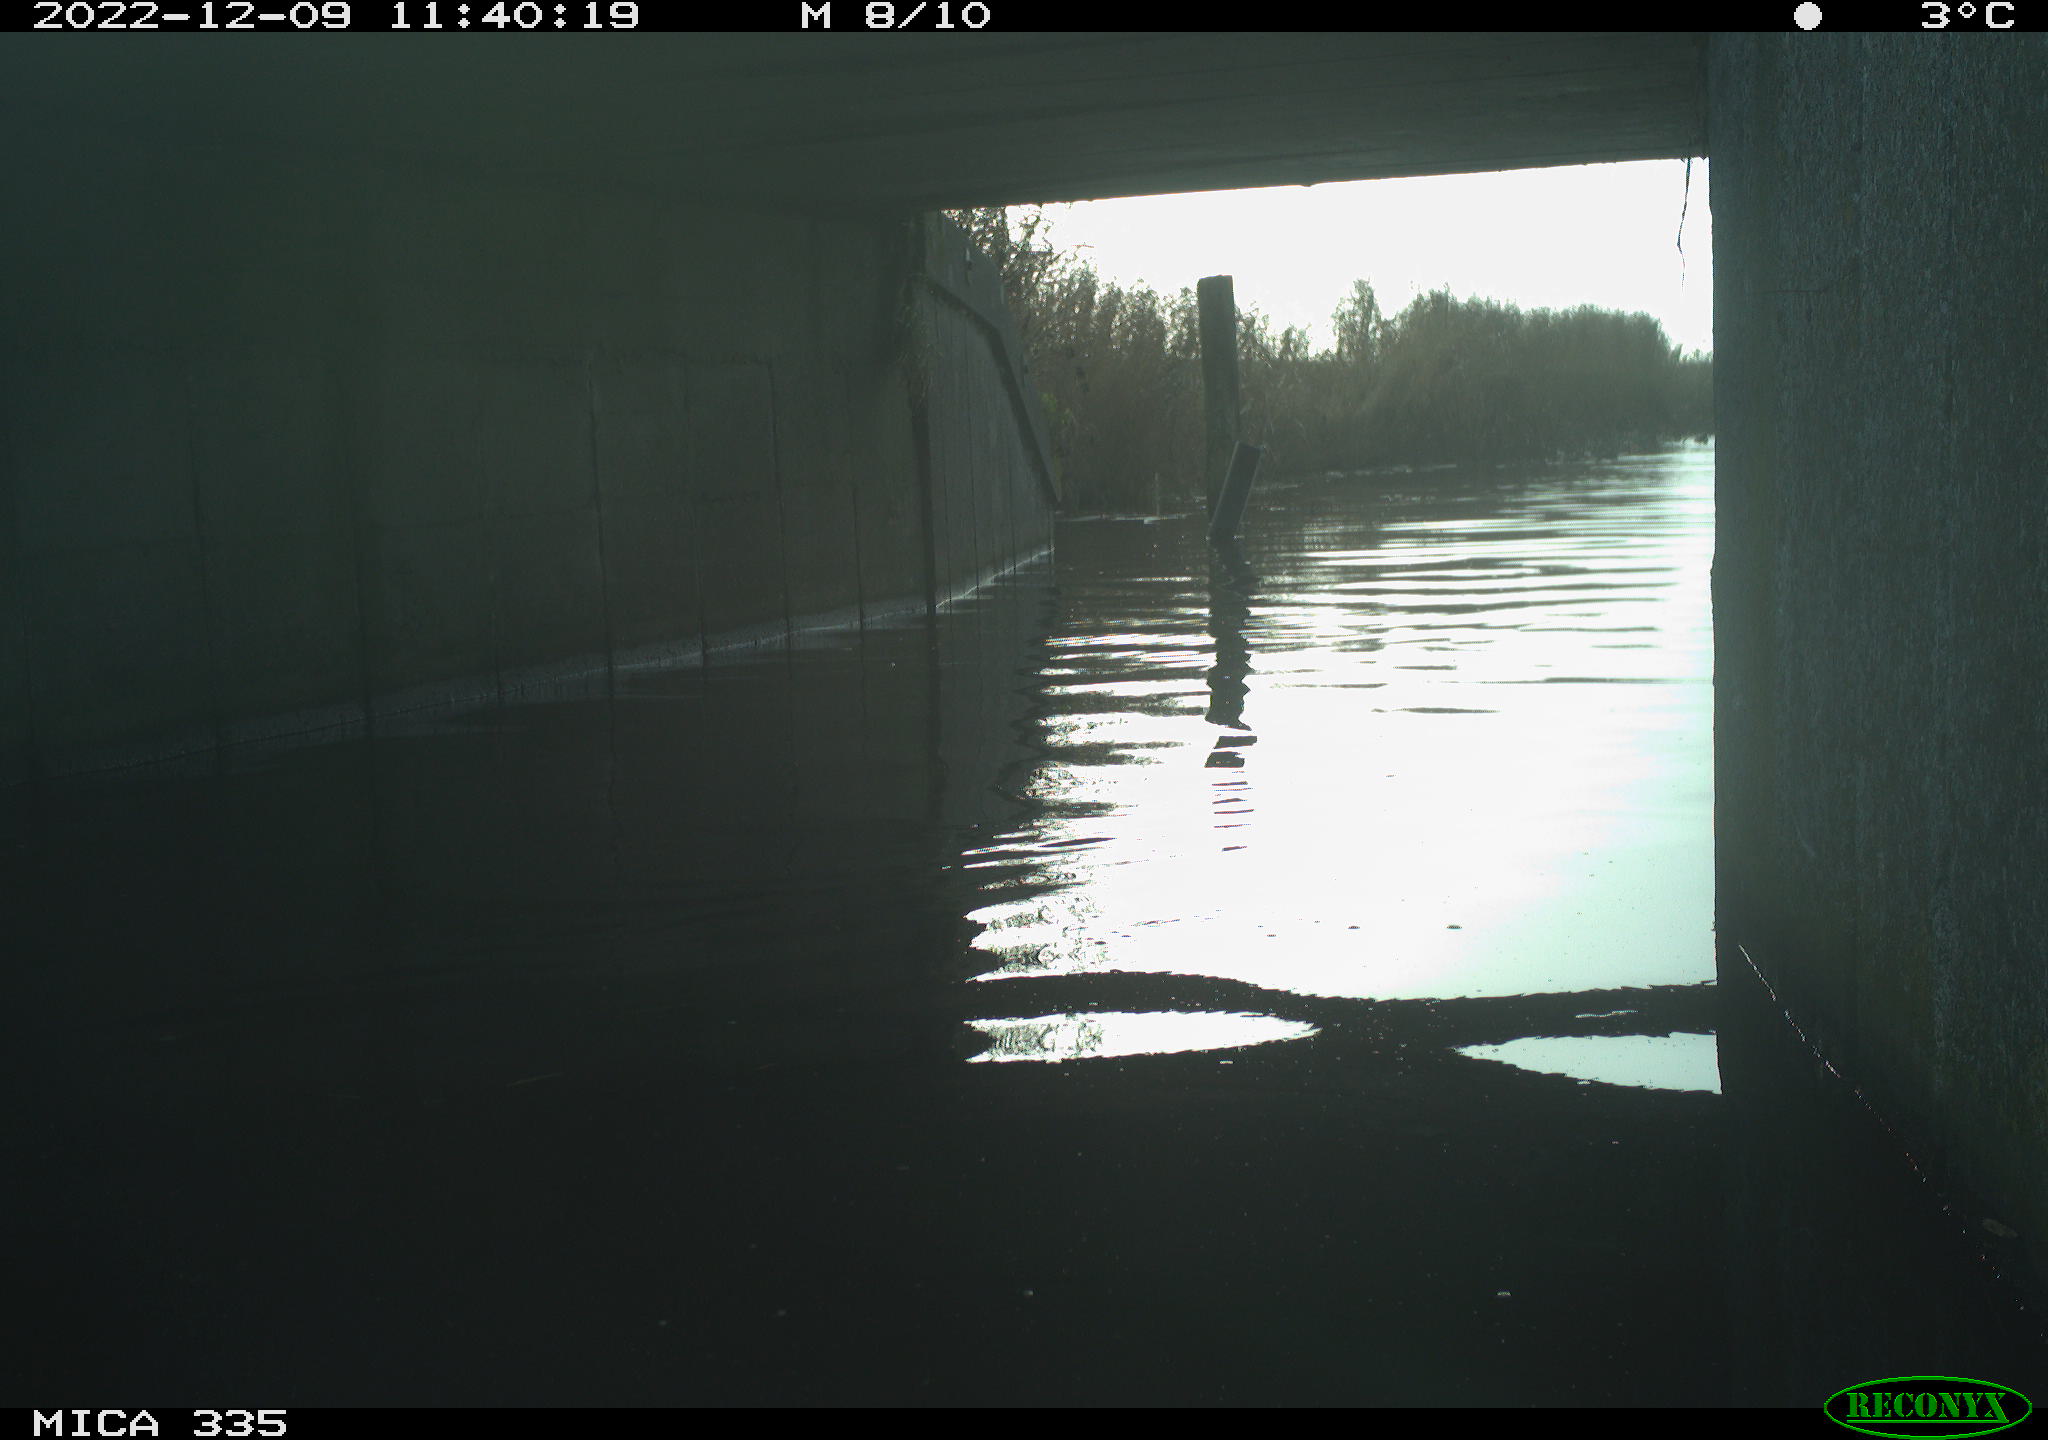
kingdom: Animalia
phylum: Chordata
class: Aves
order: Anseriformes
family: Anatidae
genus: Anas
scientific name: Anas
